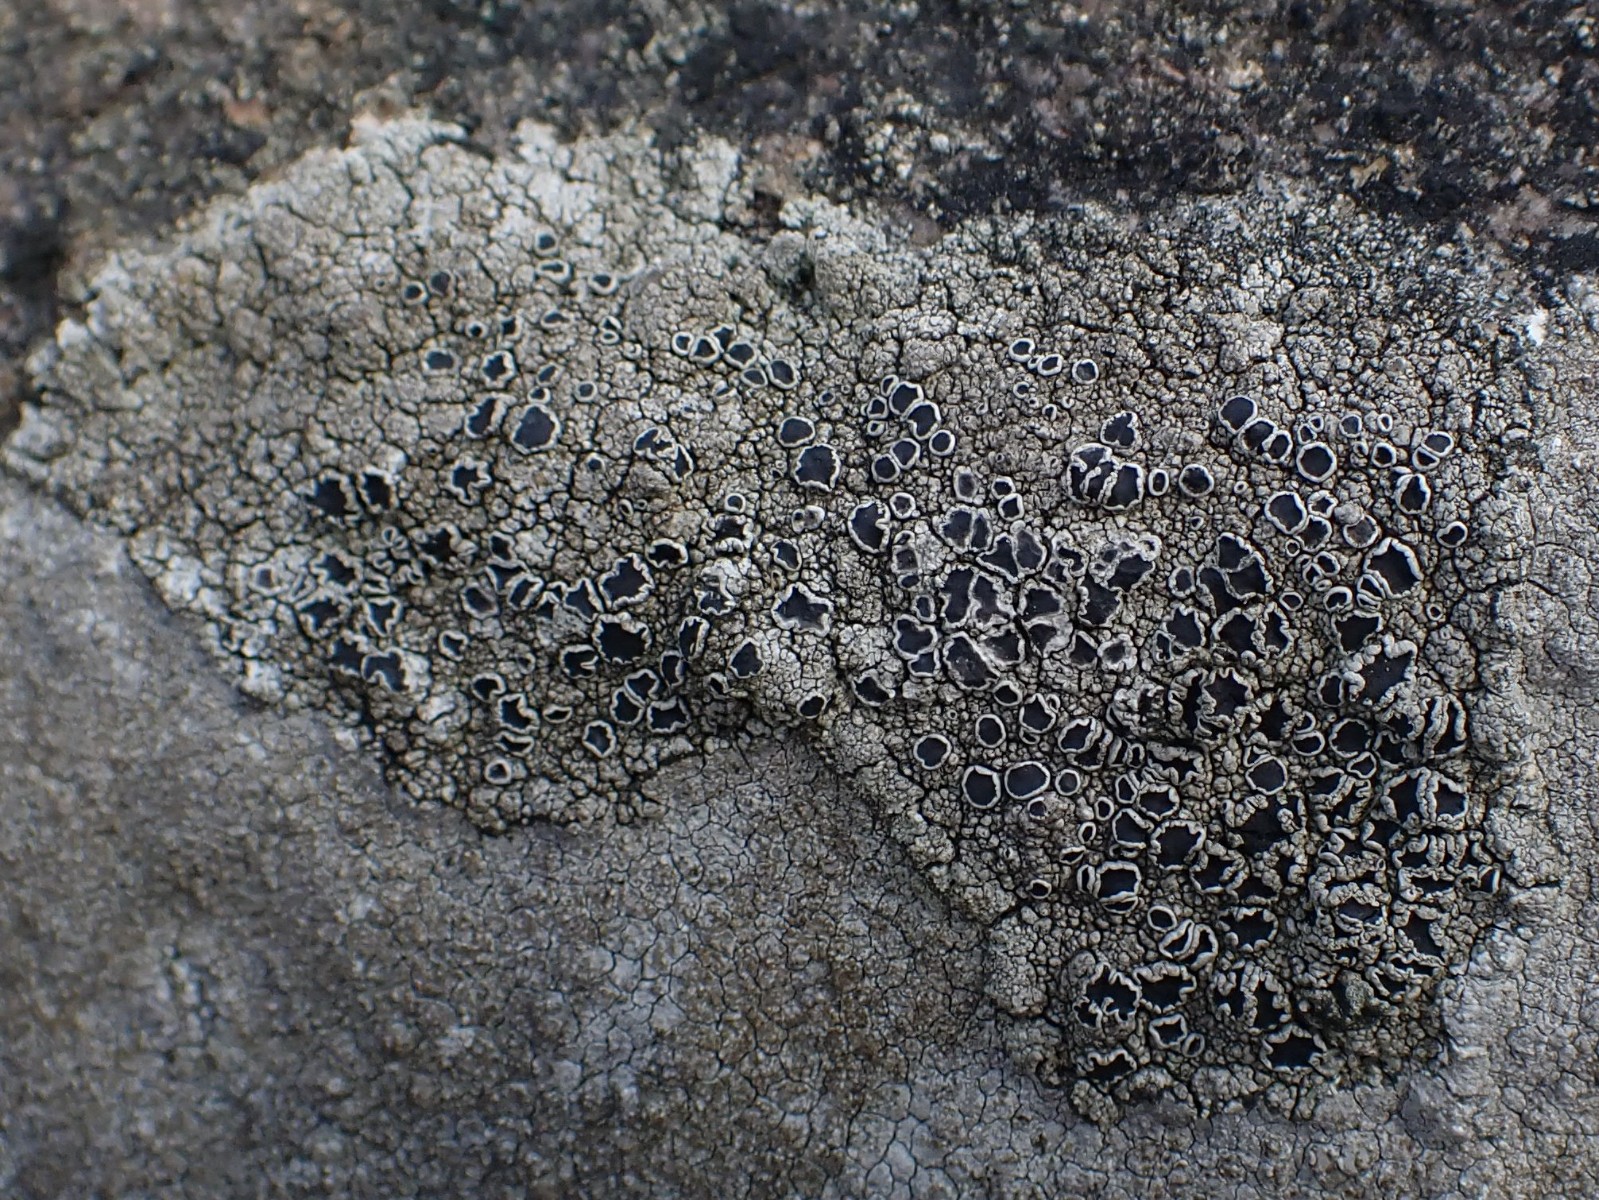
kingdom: Fungi
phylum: Ascomycota
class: Lecanoromycetes
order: Lecanorales
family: Tephromelataceae
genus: Tephromela
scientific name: Tephromela atra
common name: sortfrugtet kantskivelav
